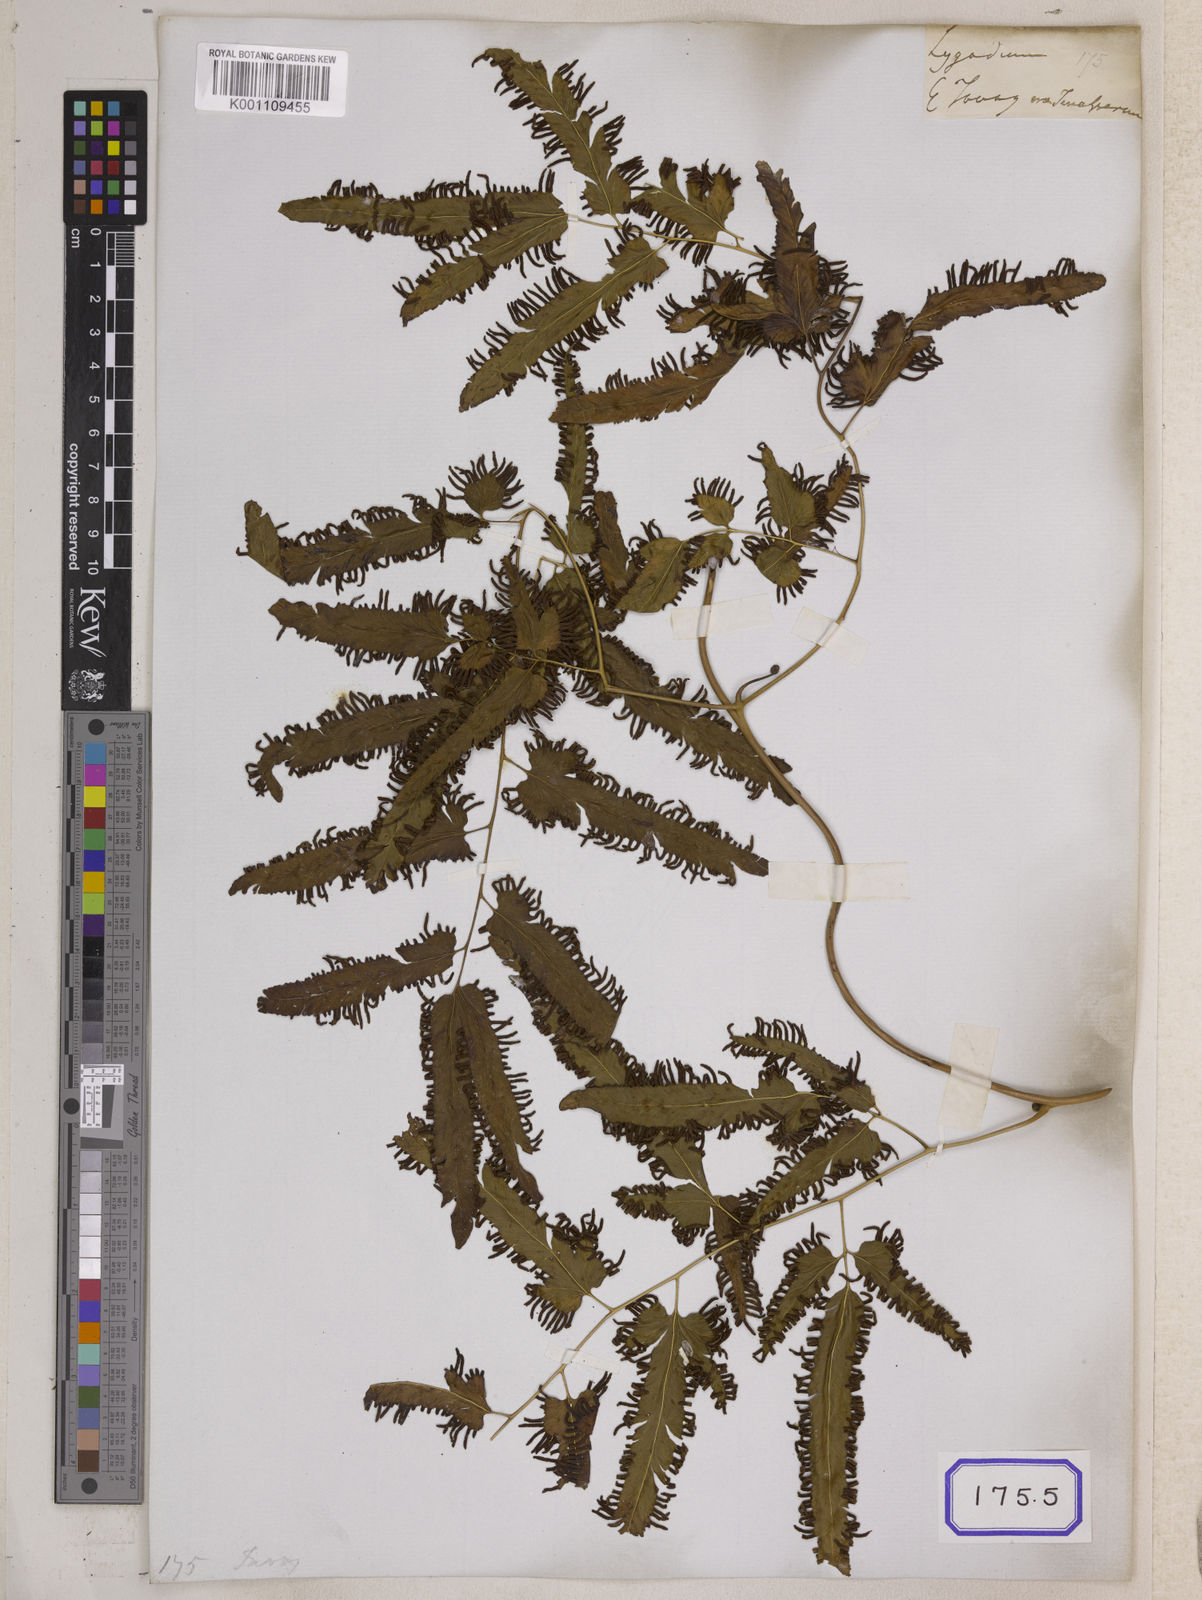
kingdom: Plantae
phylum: Tracheophyta
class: Polypodiopsida
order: Schizaeales
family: Lygodiaceae
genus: Lygodium
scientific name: Lygodium flexuosum
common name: Maidenhair creeper
